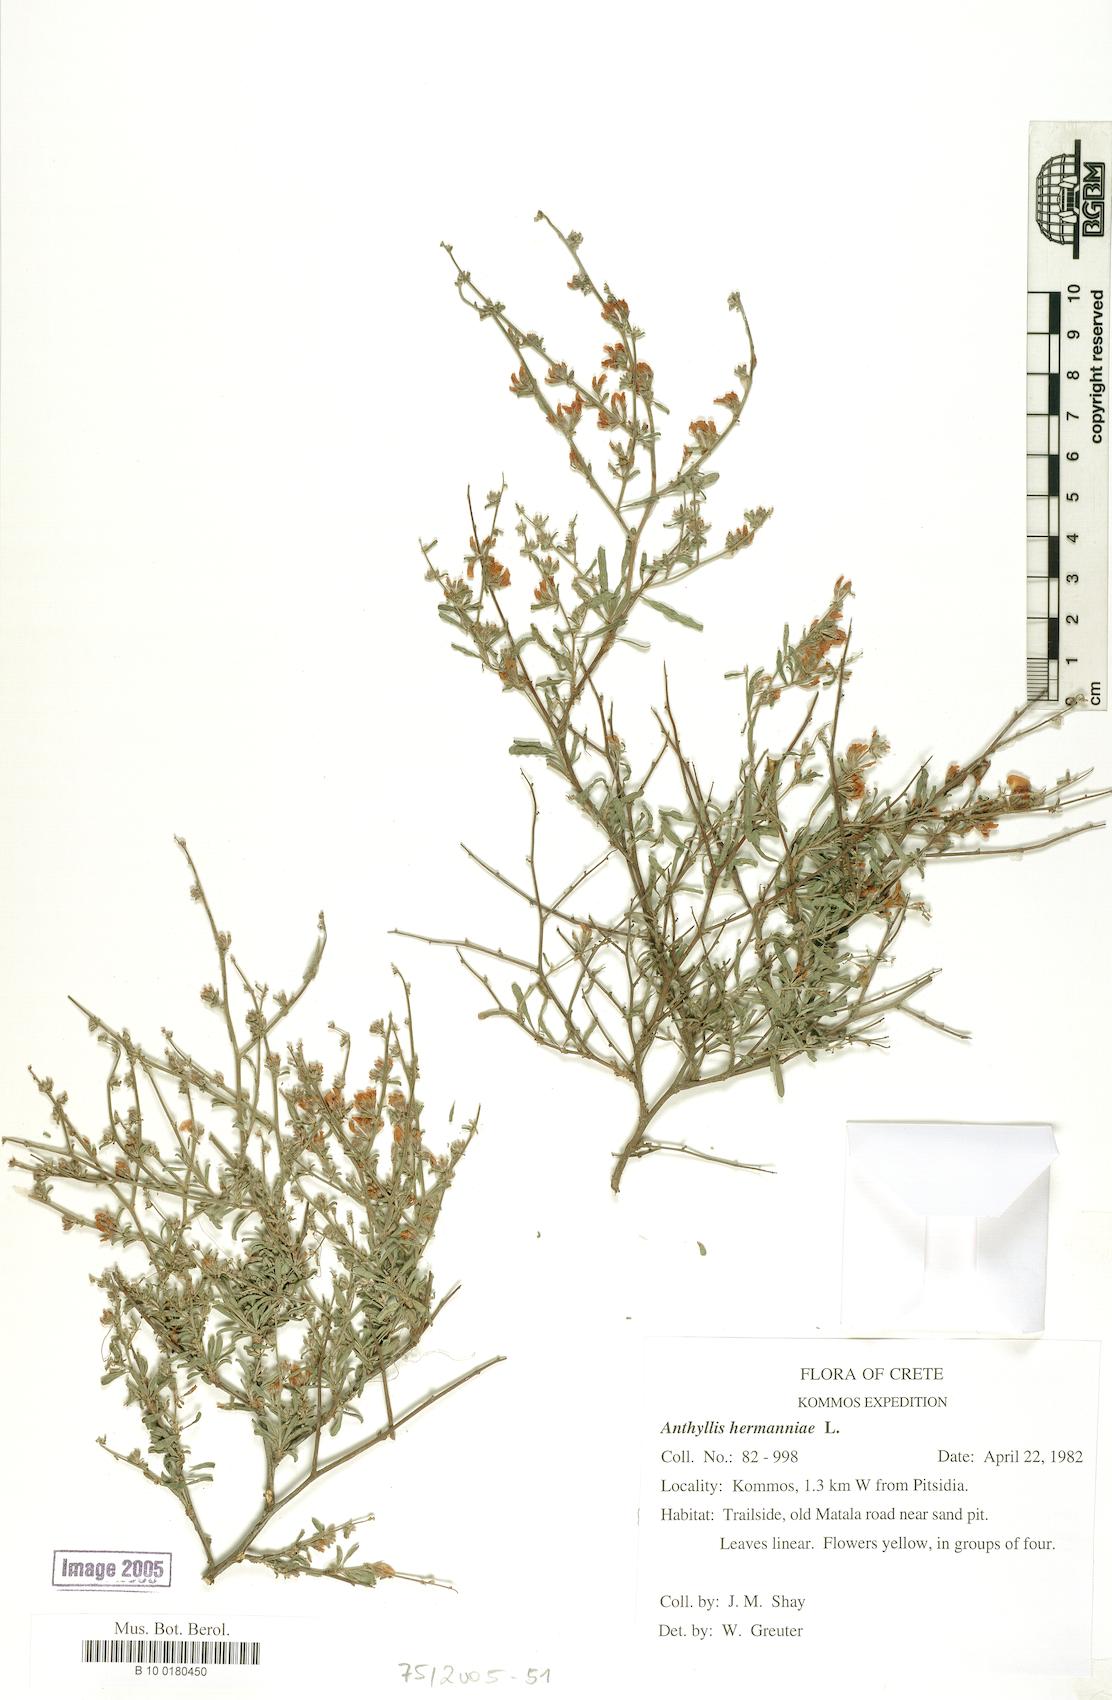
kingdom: Plantae
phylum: Tracheophyta
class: Magnoliopsida
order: Fabales
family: Fabaceae
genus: Anthyllis
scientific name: Anthyllis hermanniae
